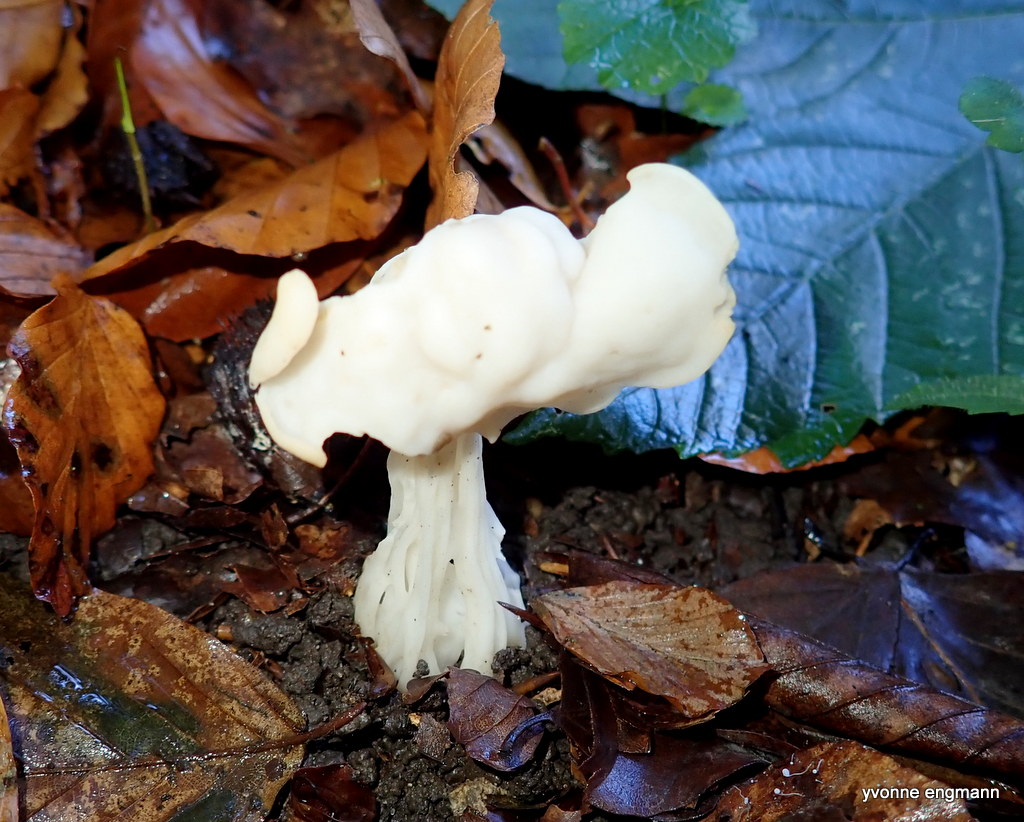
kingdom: Fungi
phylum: Ascomycota
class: Pezizomycetes
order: Pezizales
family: Helvellaceae
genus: Helvella
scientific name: Helvella crispa
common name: kruset foldhat
